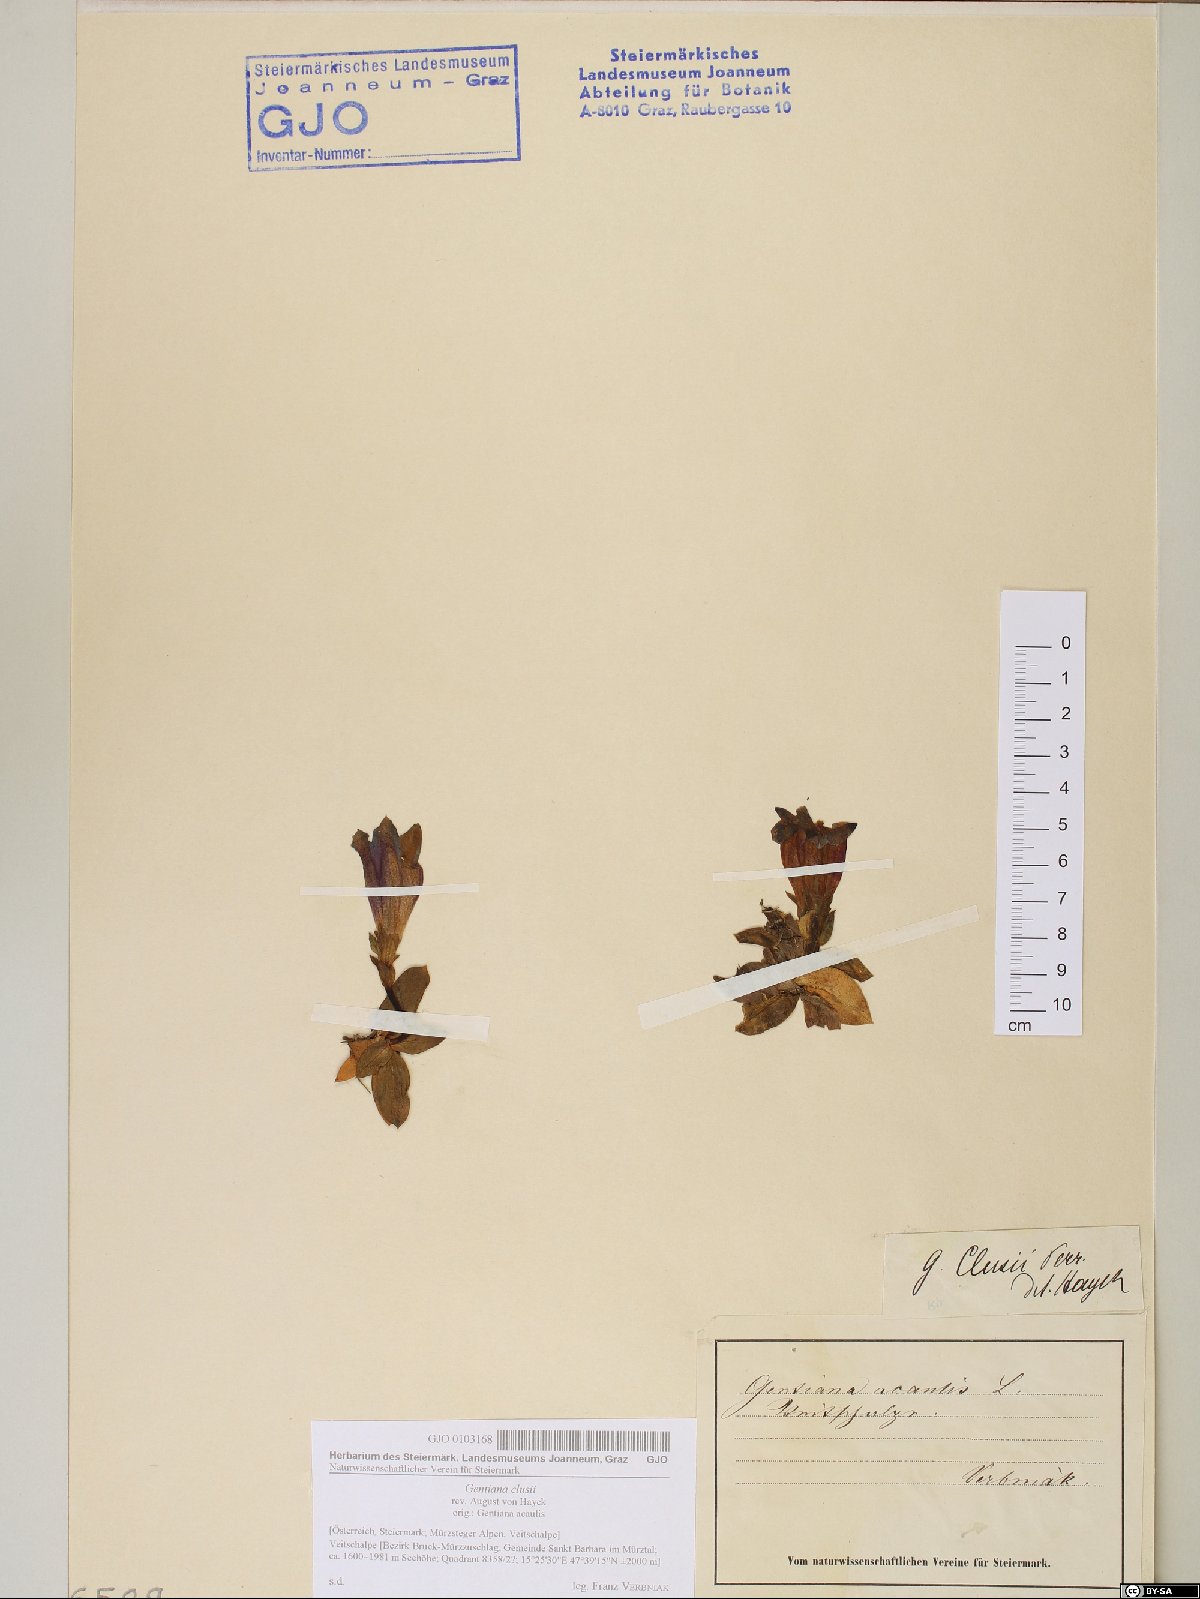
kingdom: Plantae
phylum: Tracheophyta
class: Magnoliopsida
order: Gentianales
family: Gentianaceae
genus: Gentiana
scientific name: Gentiana clusii
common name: Trumpet gentian
